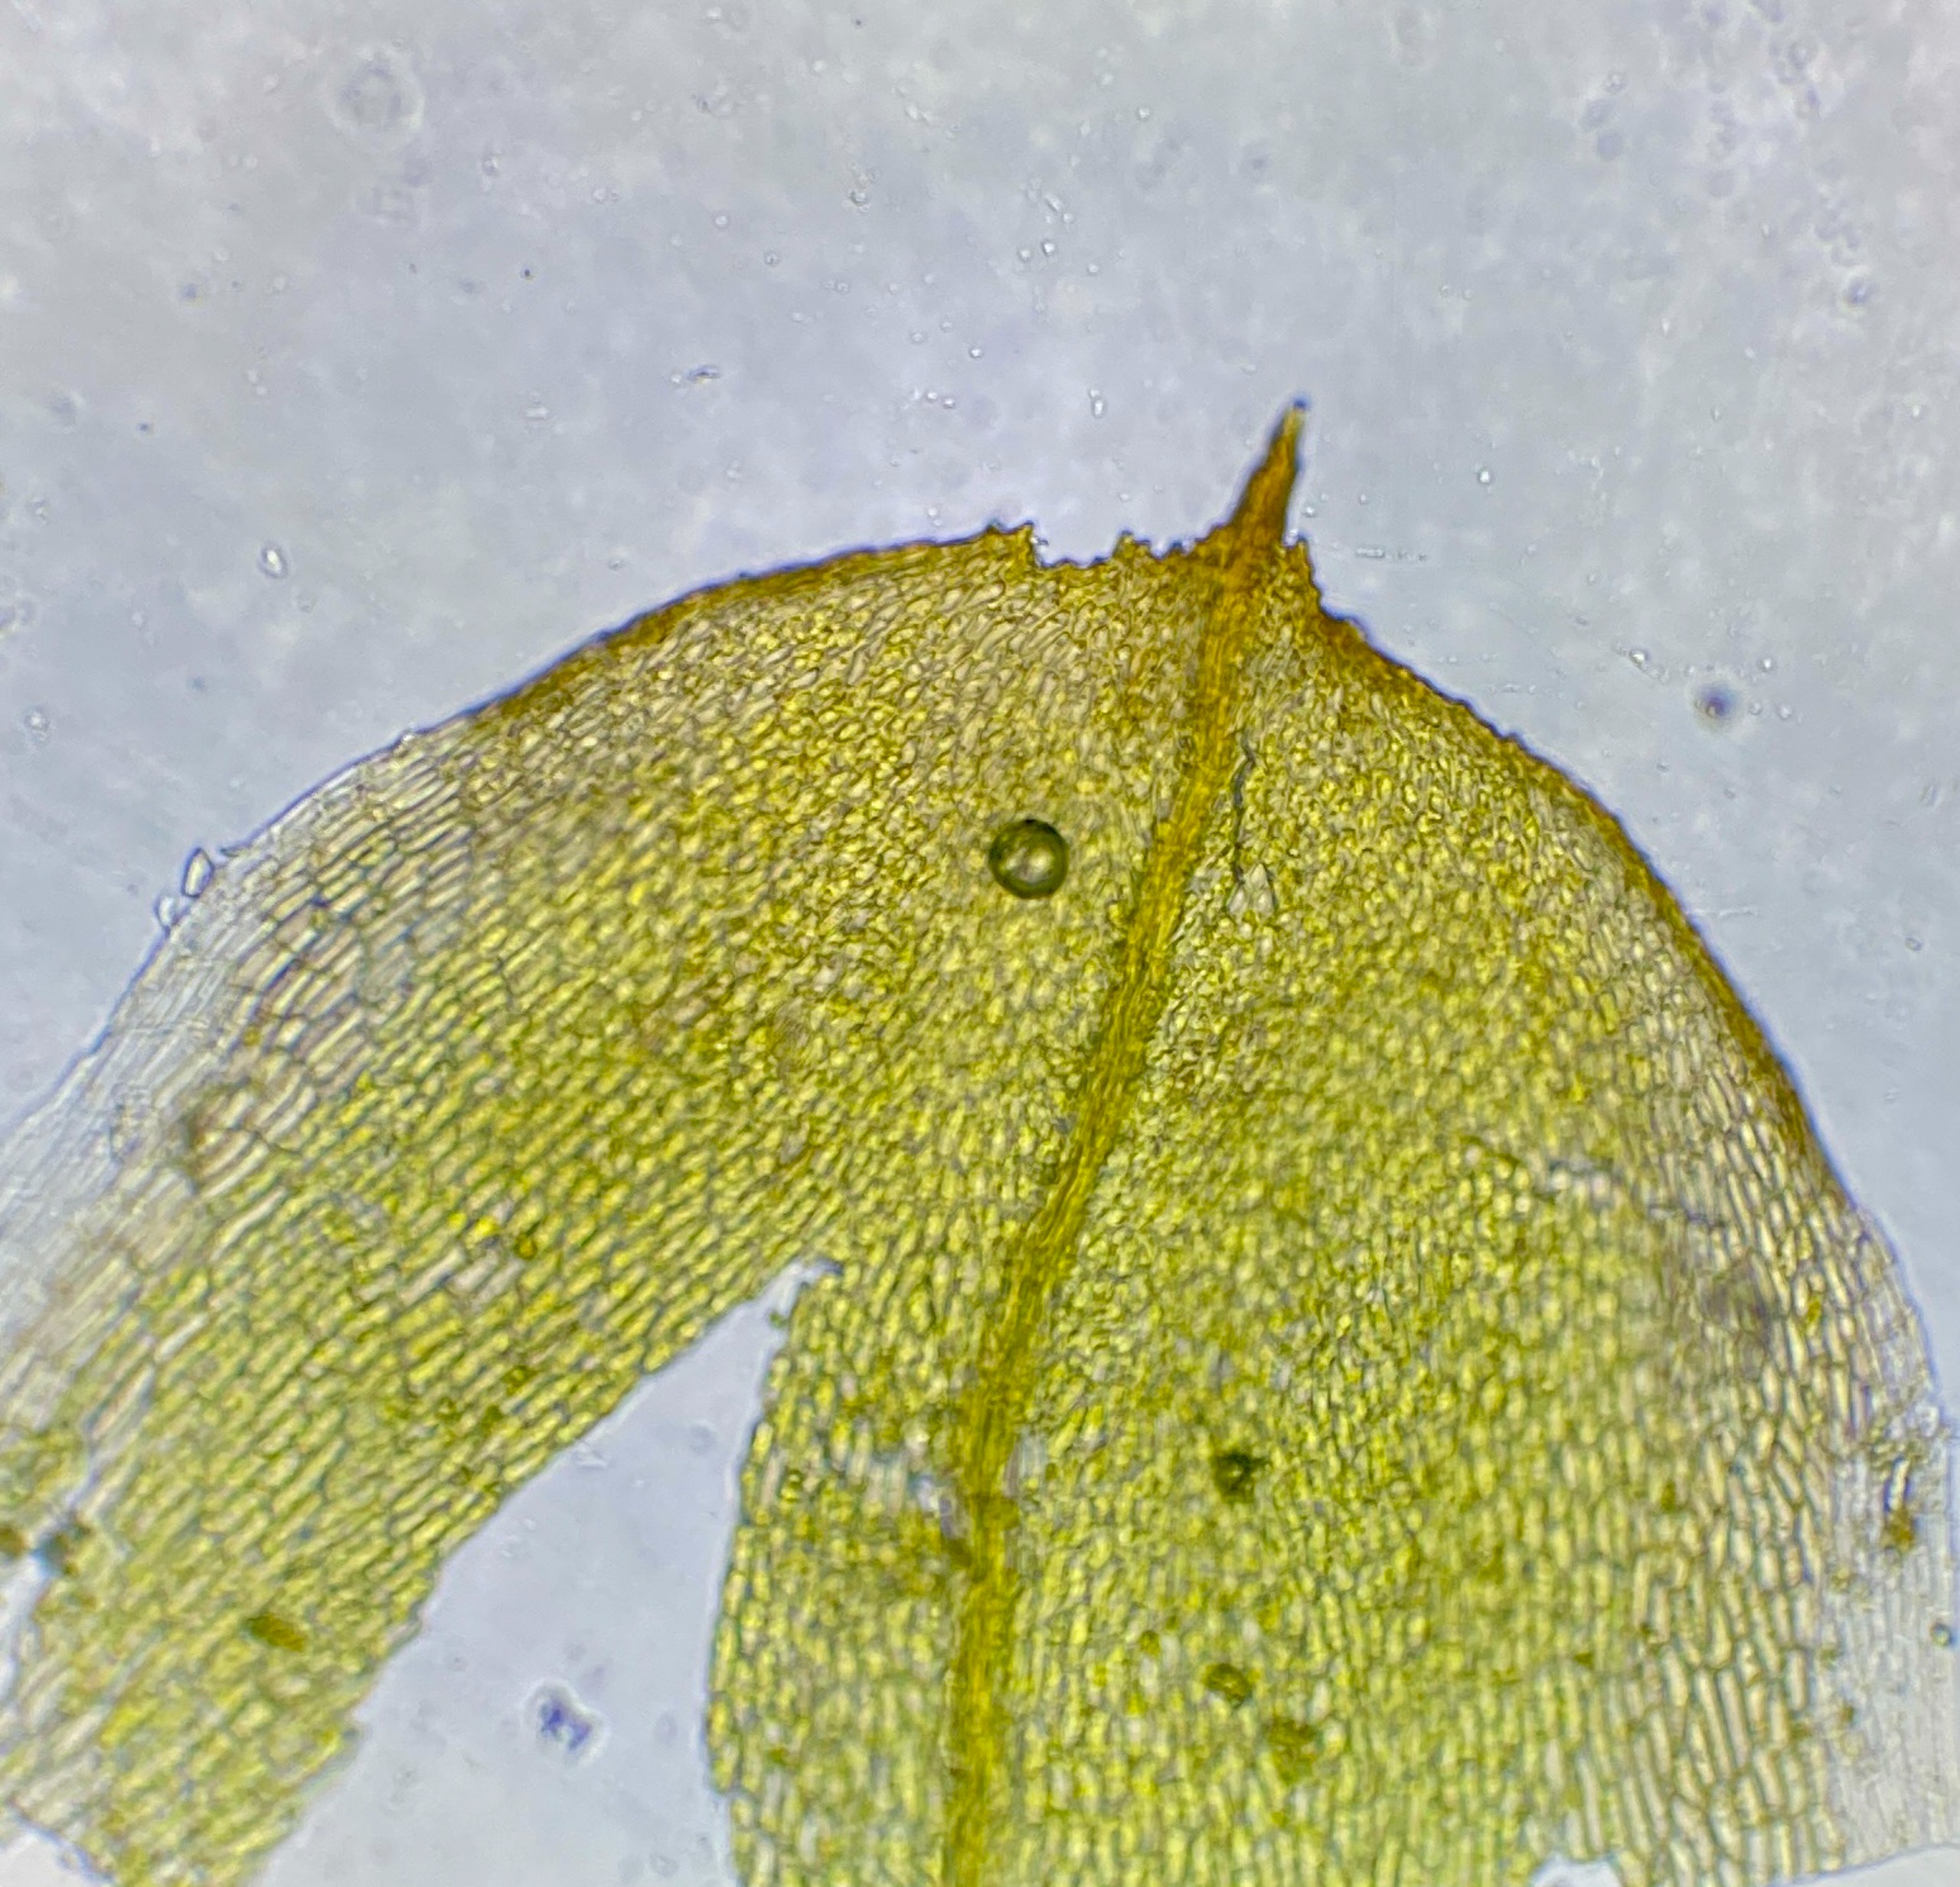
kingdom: Plantae
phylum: Bryophyta
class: Bryopsida
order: Pottiales
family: Pottiaceae
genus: Acaulon
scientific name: Acaulon muticum
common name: Siddende ægmos
